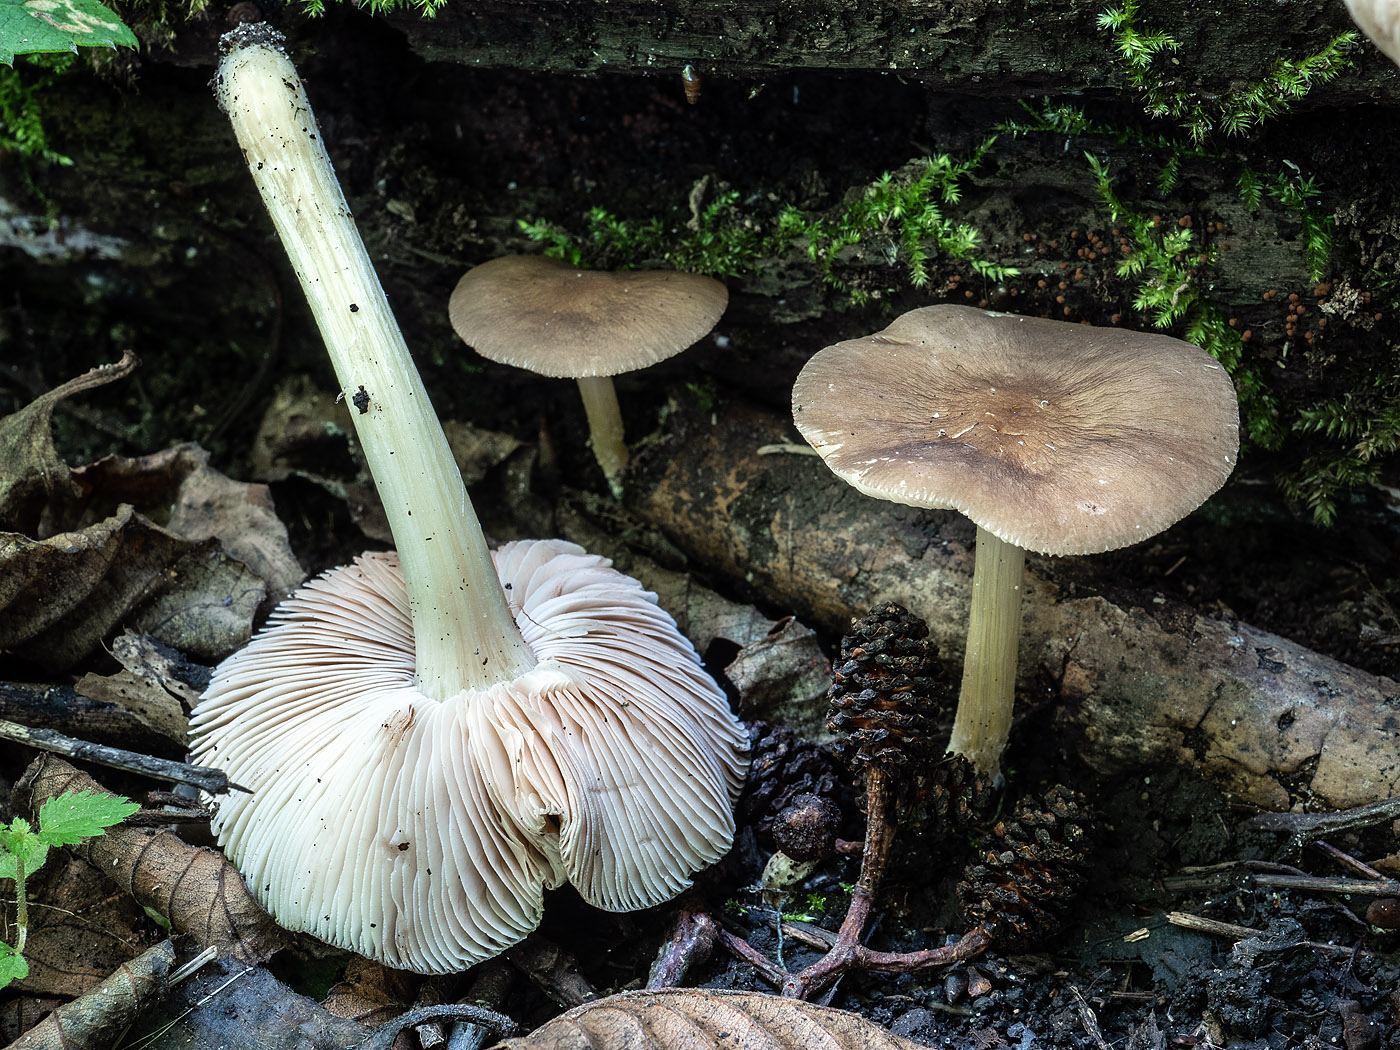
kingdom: Fungi
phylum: Basidiomycota
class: Agaricomycetes
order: Agaricales
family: Pluteaceae
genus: Pluteus
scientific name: Pluteus phlebophorus
